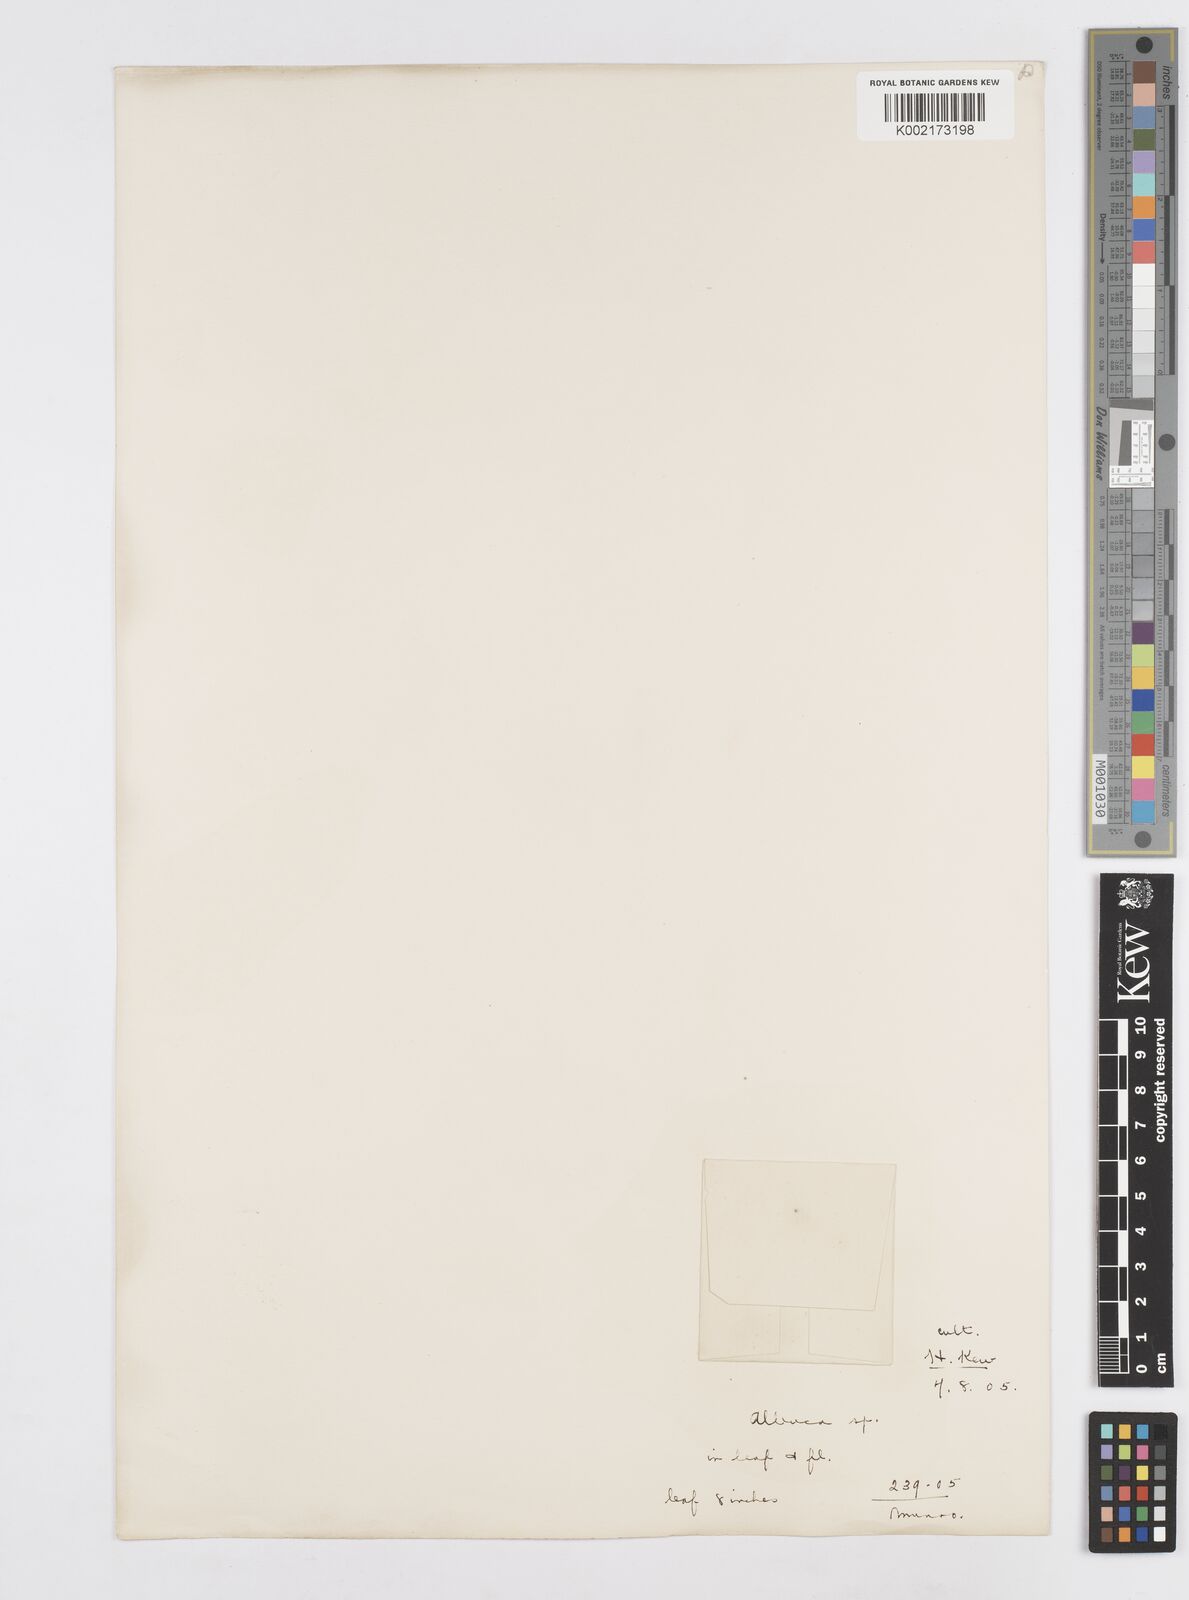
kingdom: Plantae
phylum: Tracheophyta
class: Liliopsida
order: Asparagales
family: Asparagaceae
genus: Albuca
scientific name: Albuca
